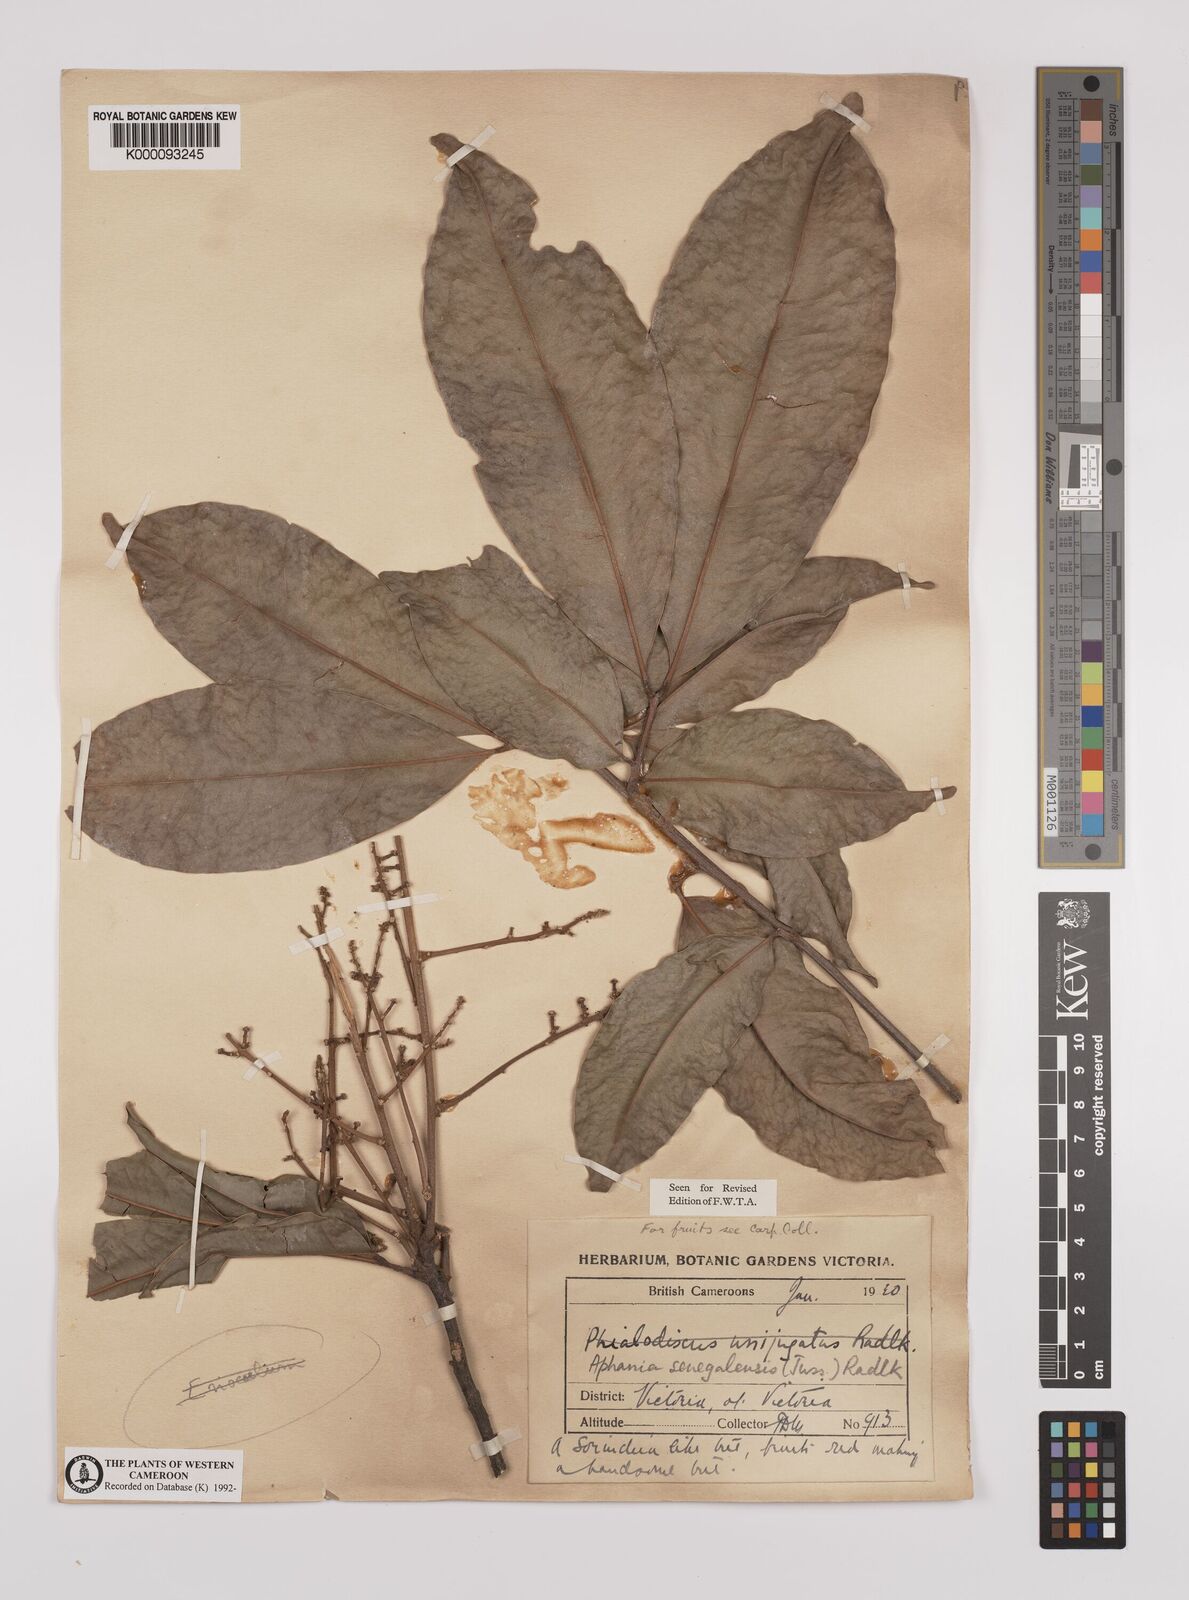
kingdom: Plantae
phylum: Tracheophyta
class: Magnoliopsida
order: Sapindales
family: Sapindaceae
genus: Lepisanthes
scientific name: Lepisanthes senegalensis
